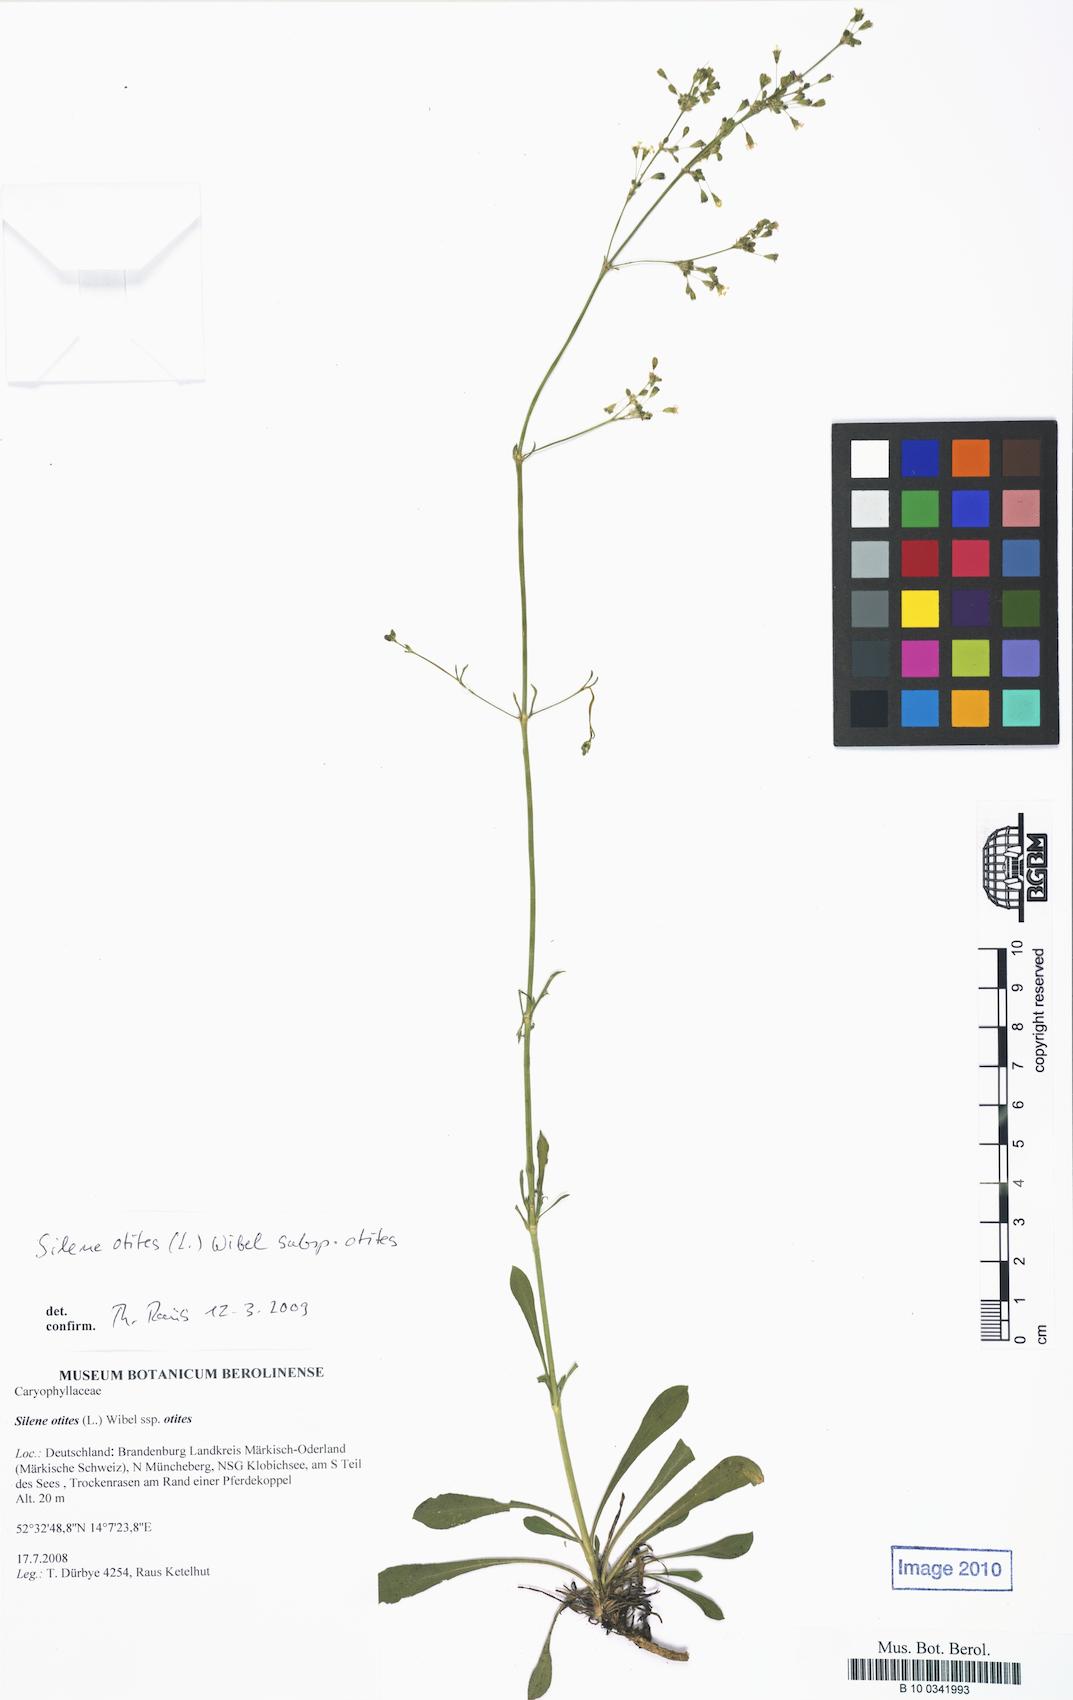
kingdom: Plantae
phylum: Tracheophyta
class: Magnoliopsida
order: Caryophyllales
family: Caryophyllaceae
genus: Silene
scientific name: Silene otites
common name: Spanish catchfly
